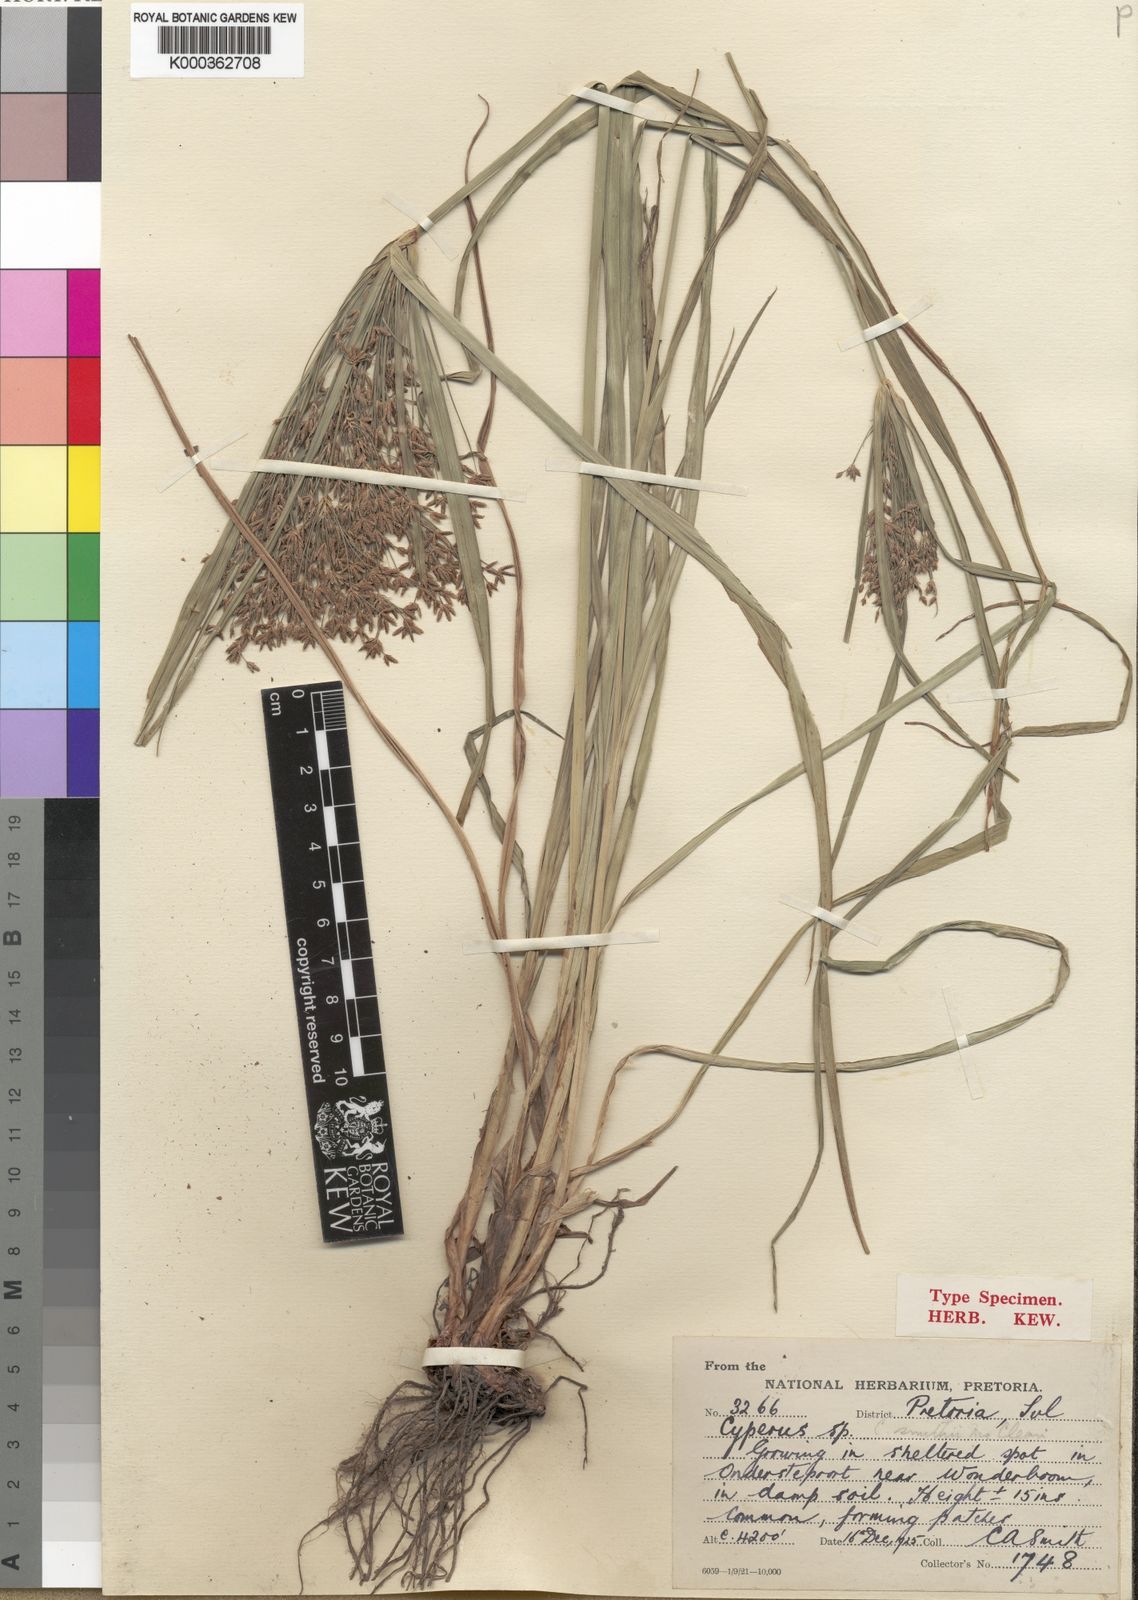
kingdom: Plantae
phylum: Tracheophyta
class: Liliopsida
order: Poales
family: Cyperaceae
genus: Cyperus
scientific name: Cyperus leptocladus
